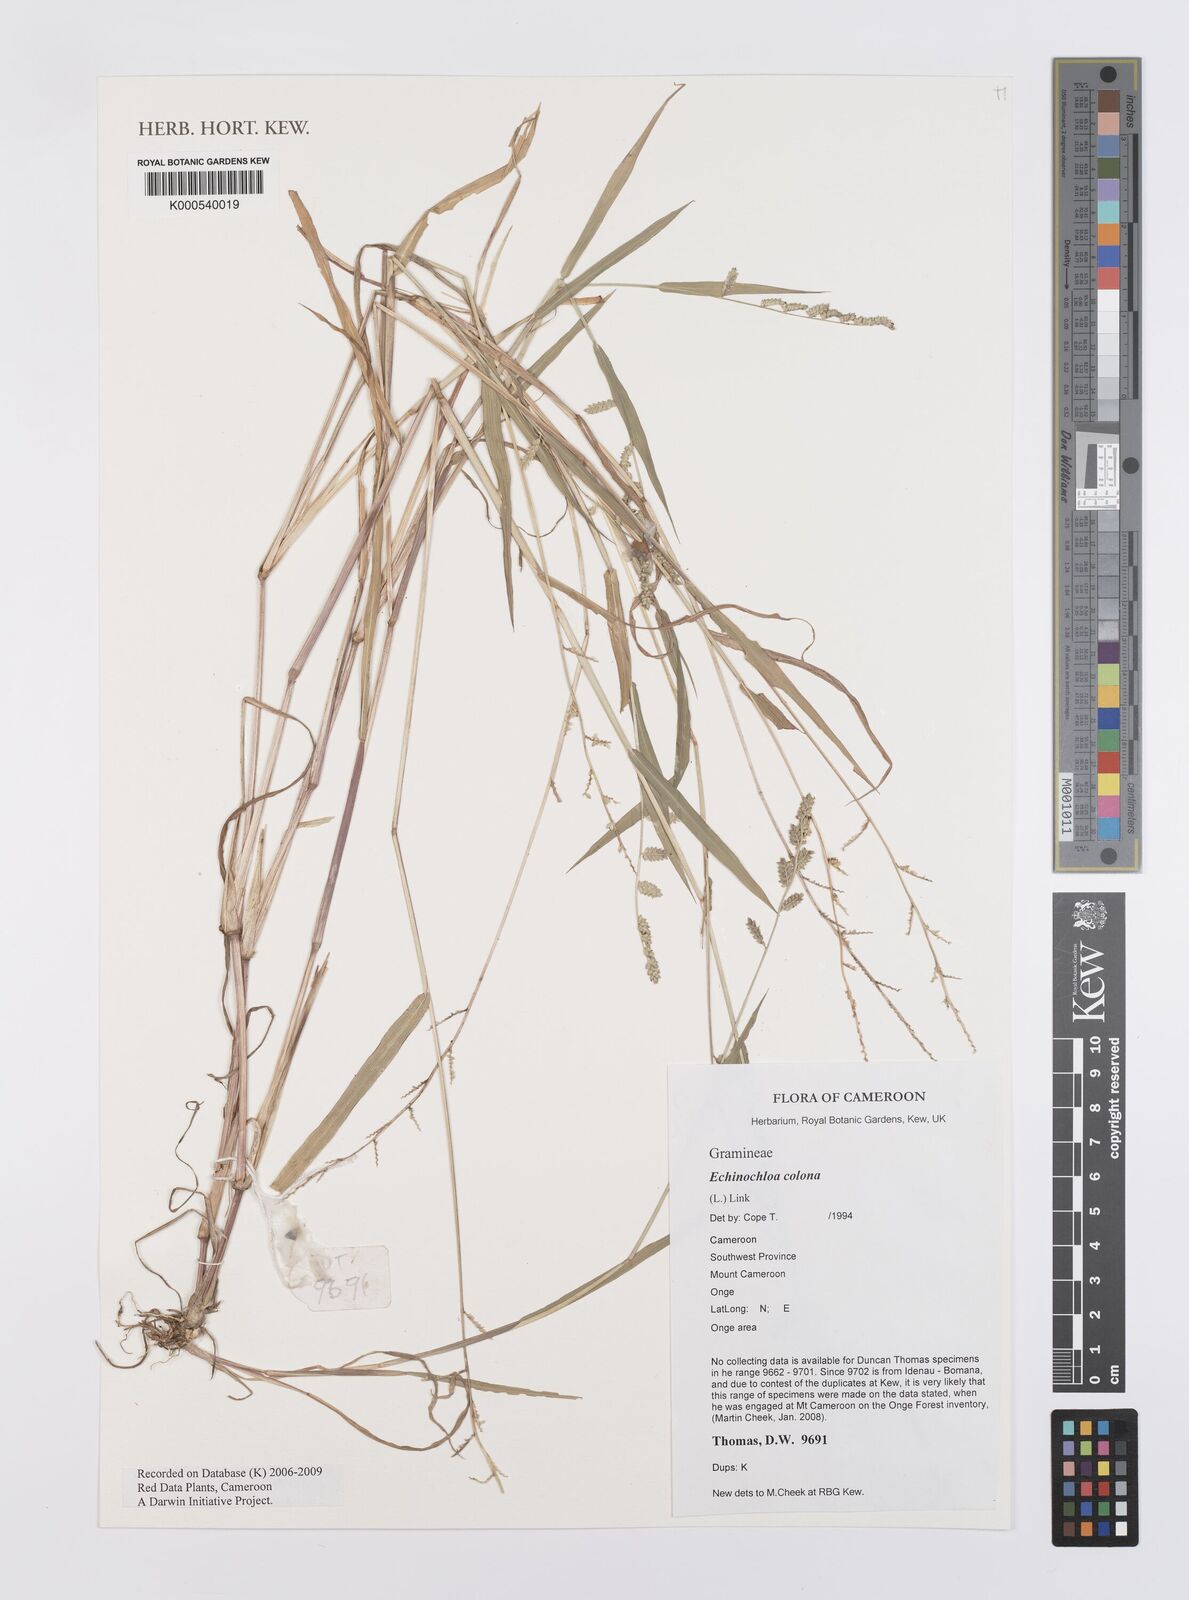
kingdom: Plantae
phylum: Tracheophyta
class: Liliopsida
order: Poales
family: Poaceae
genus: Echinochloa
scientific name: Echinochloa colonum
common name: Jungle rice
